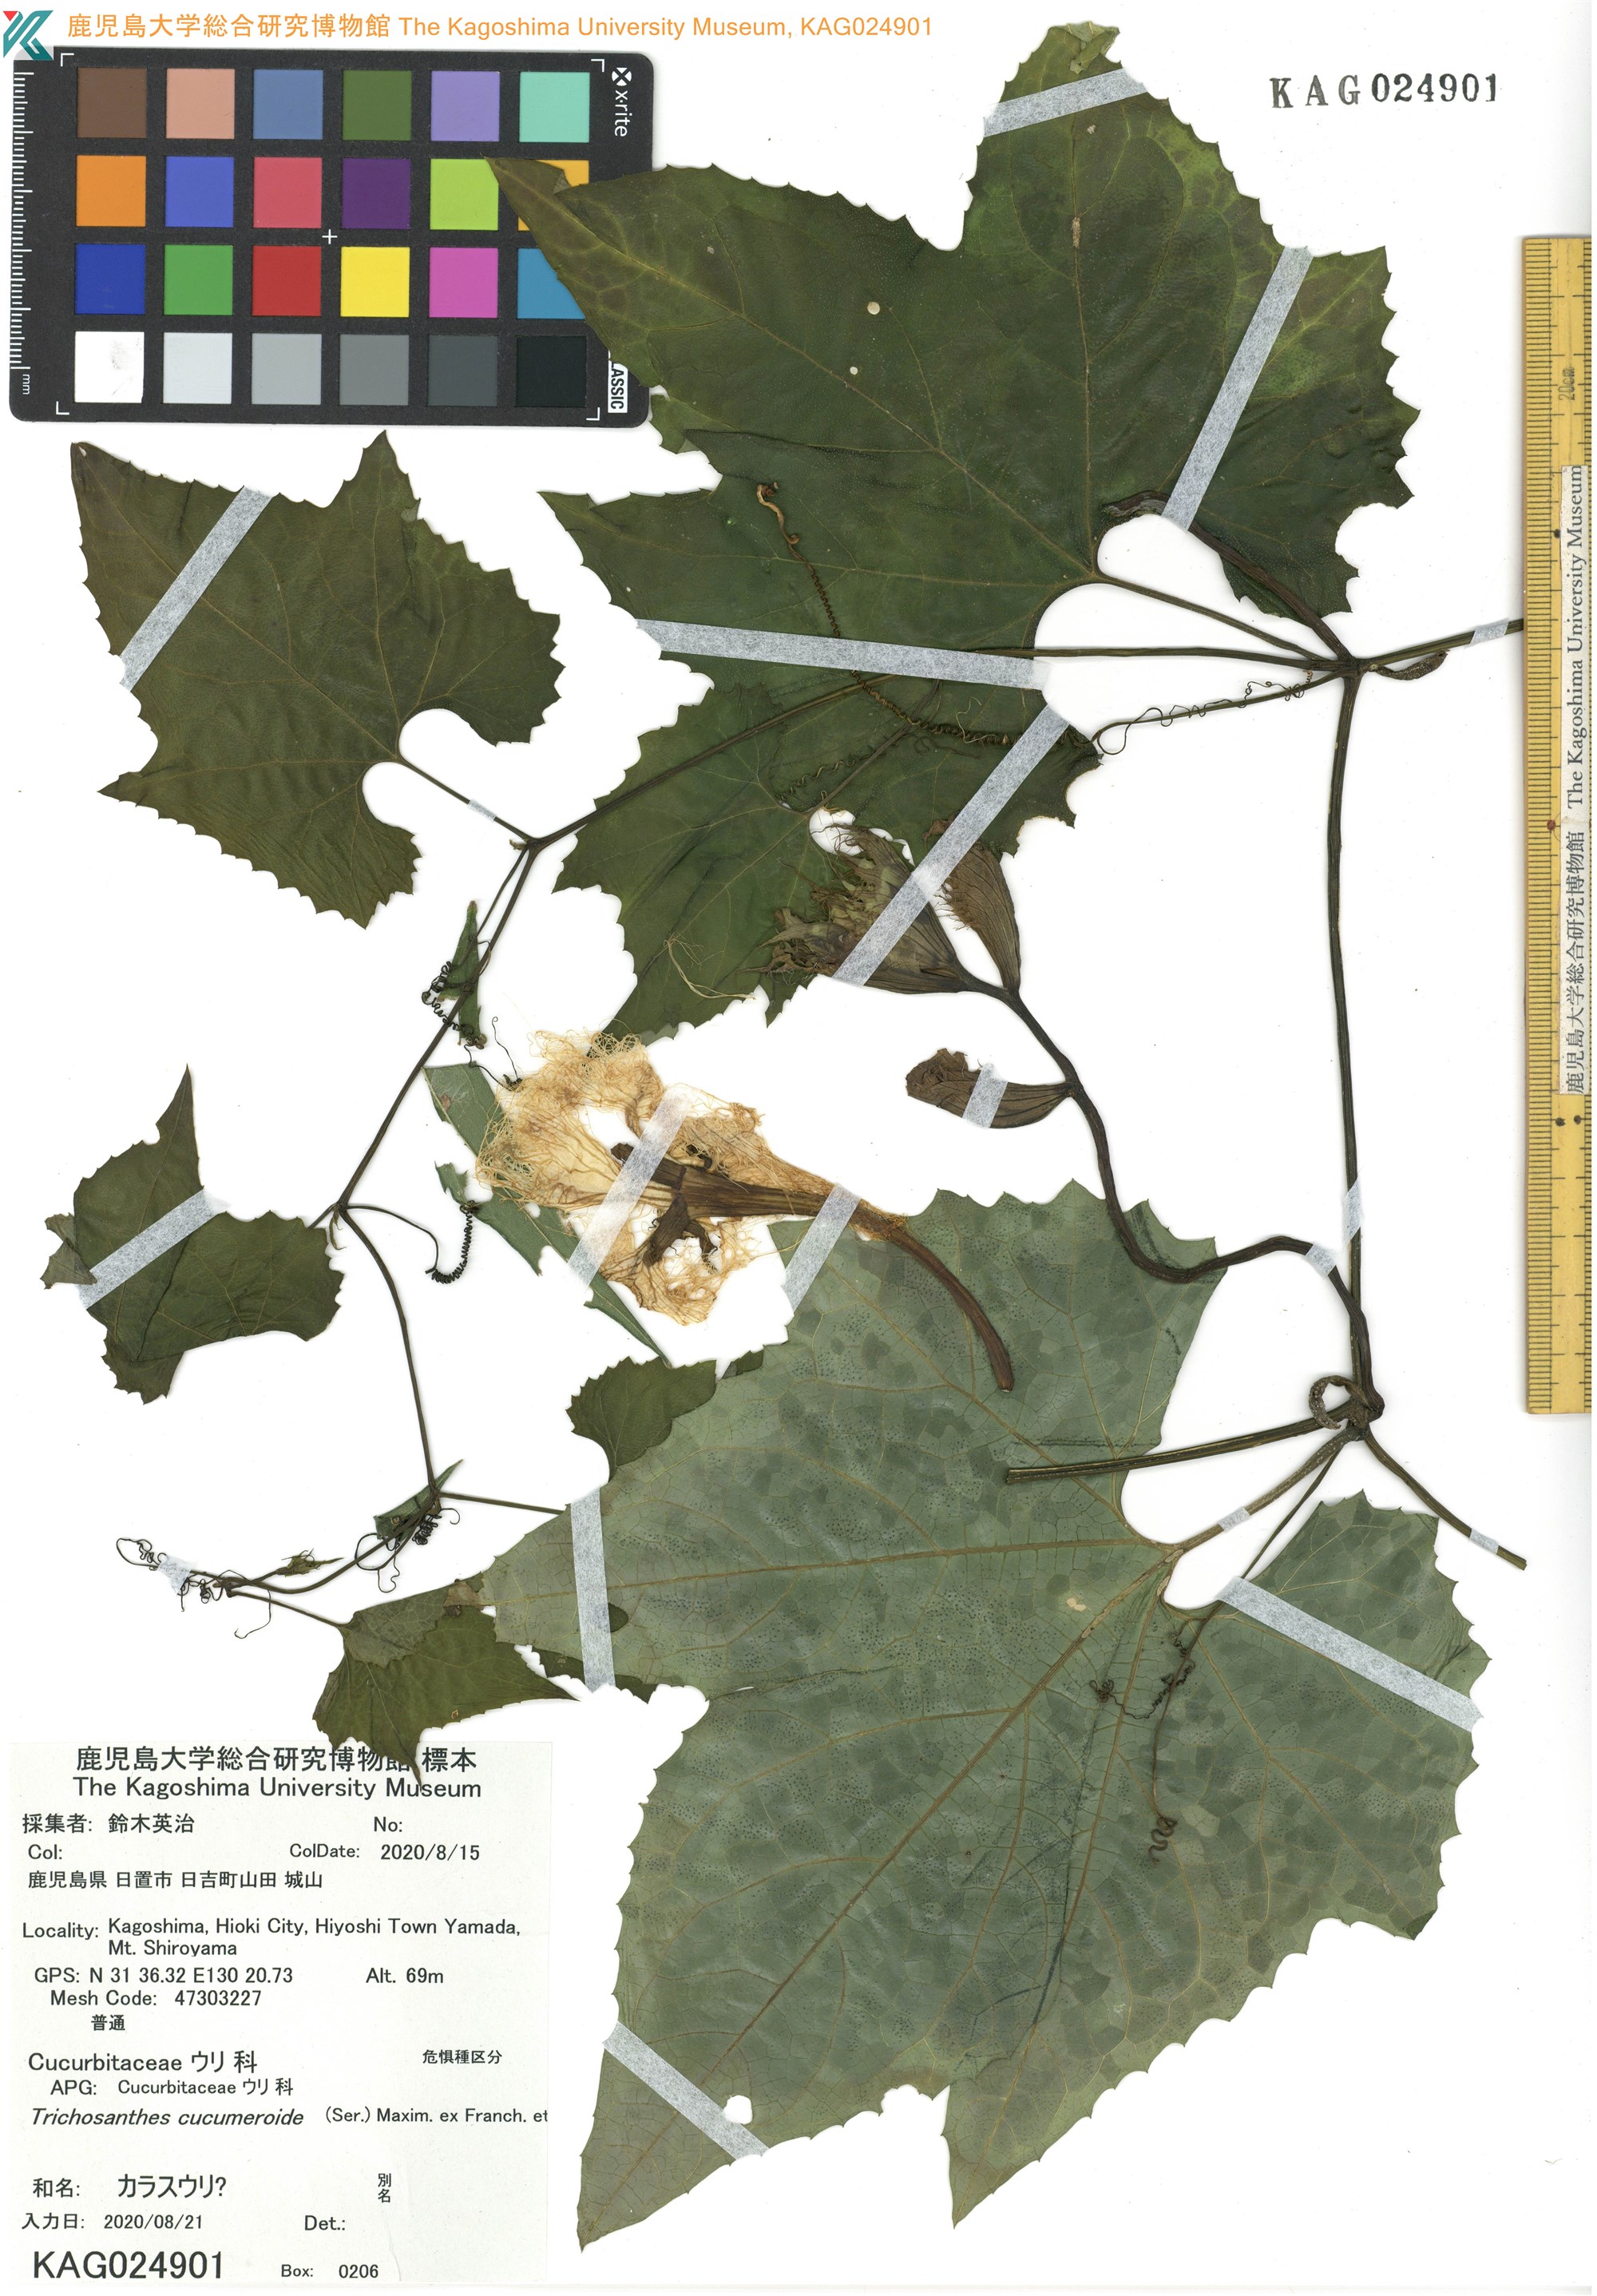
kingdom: Plantae
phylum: Tracheophyta
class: Magnoliopsida
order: Cucurbitales
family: Cucurbitaceae
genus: Trichosanthes
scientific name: Trichosanthes laceribractea
